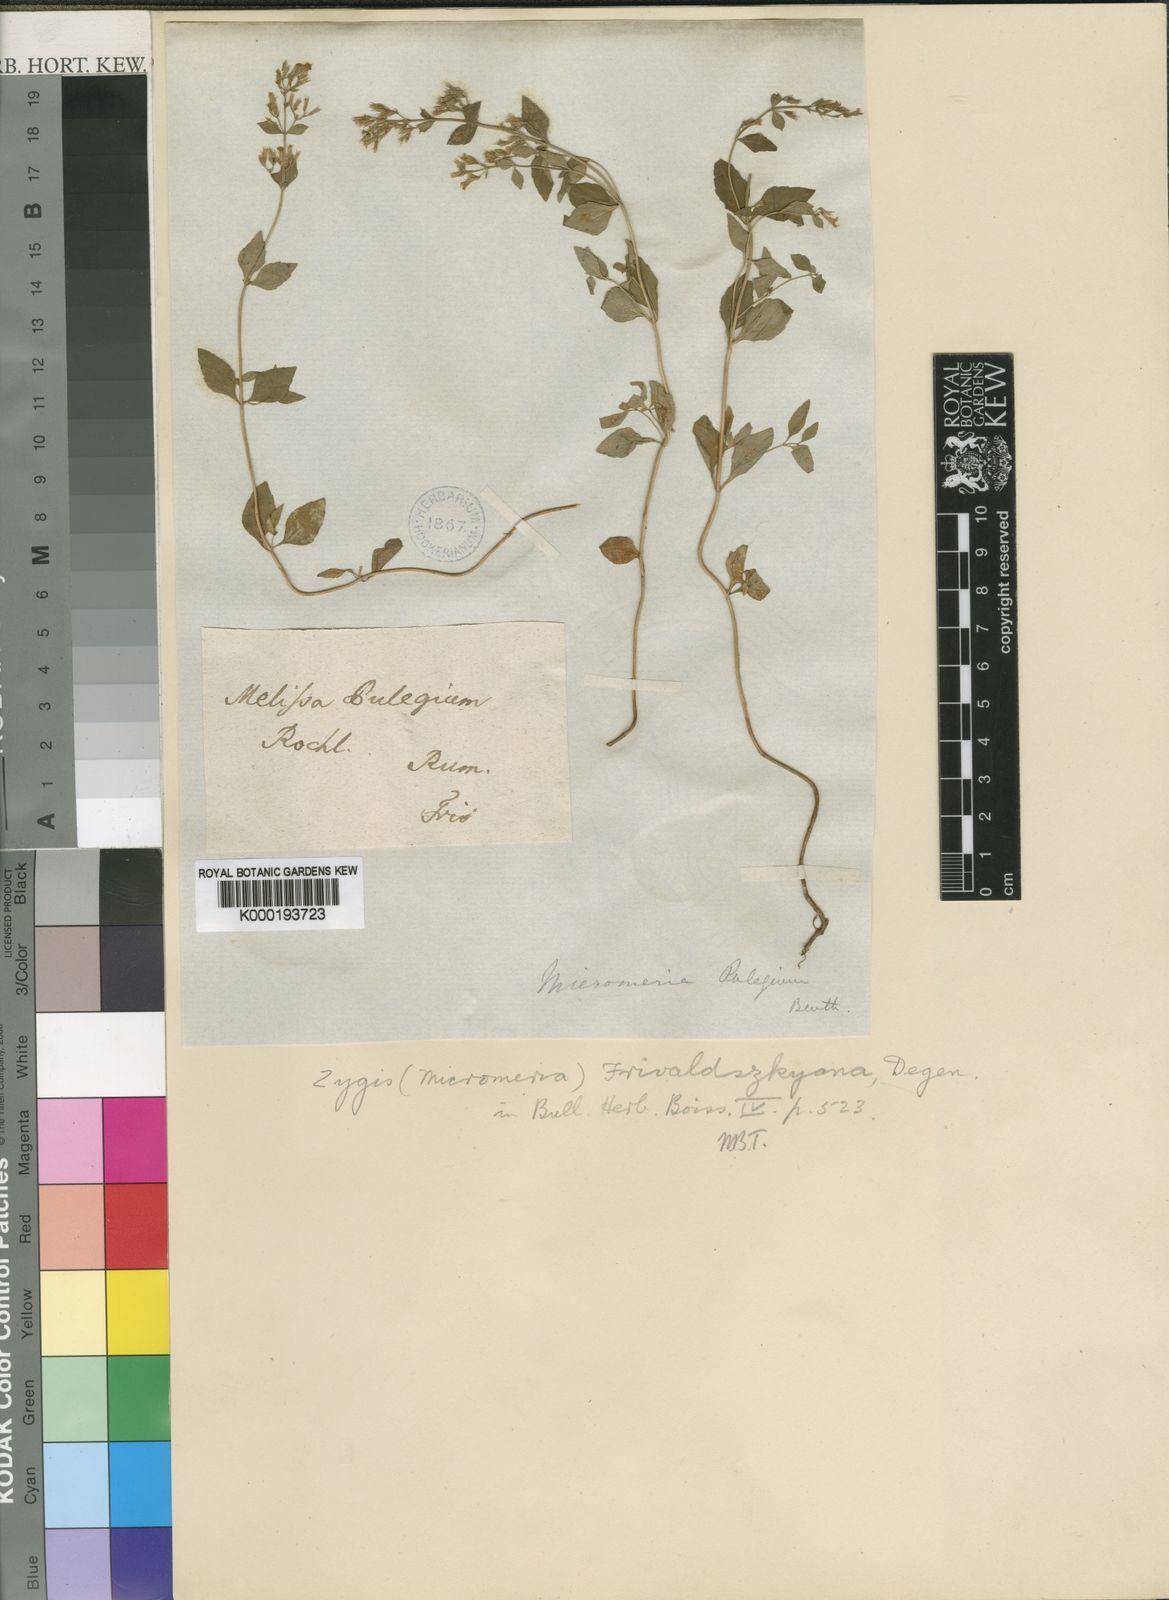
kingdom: Plantae
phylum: Tracheophyta
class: Magnoliopsida
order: Lamiales
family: Lamiaceae
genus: Clinopodium
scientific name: Clinopodium pulegium
